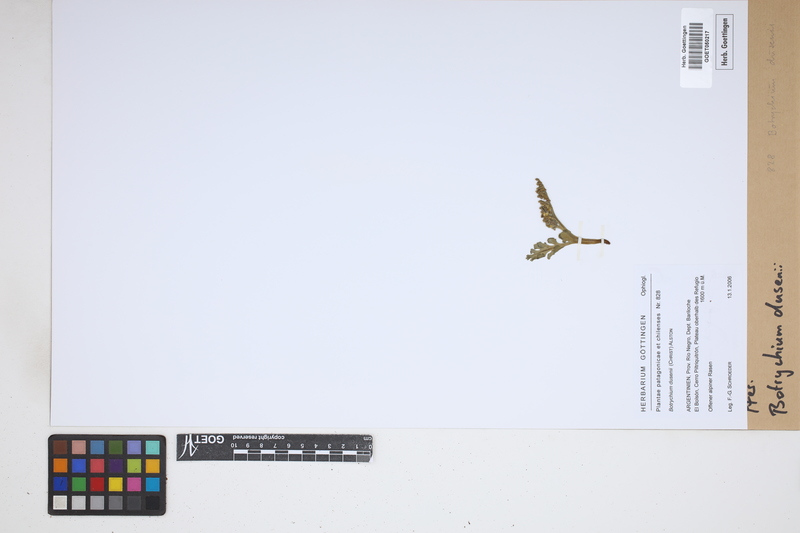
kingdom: Plantae
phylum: Tracheophyta
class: Polypodiopsida
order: Ophioglossales
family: Ophioglossaceae
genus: Botrychium
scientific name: Botrychium dusenii
